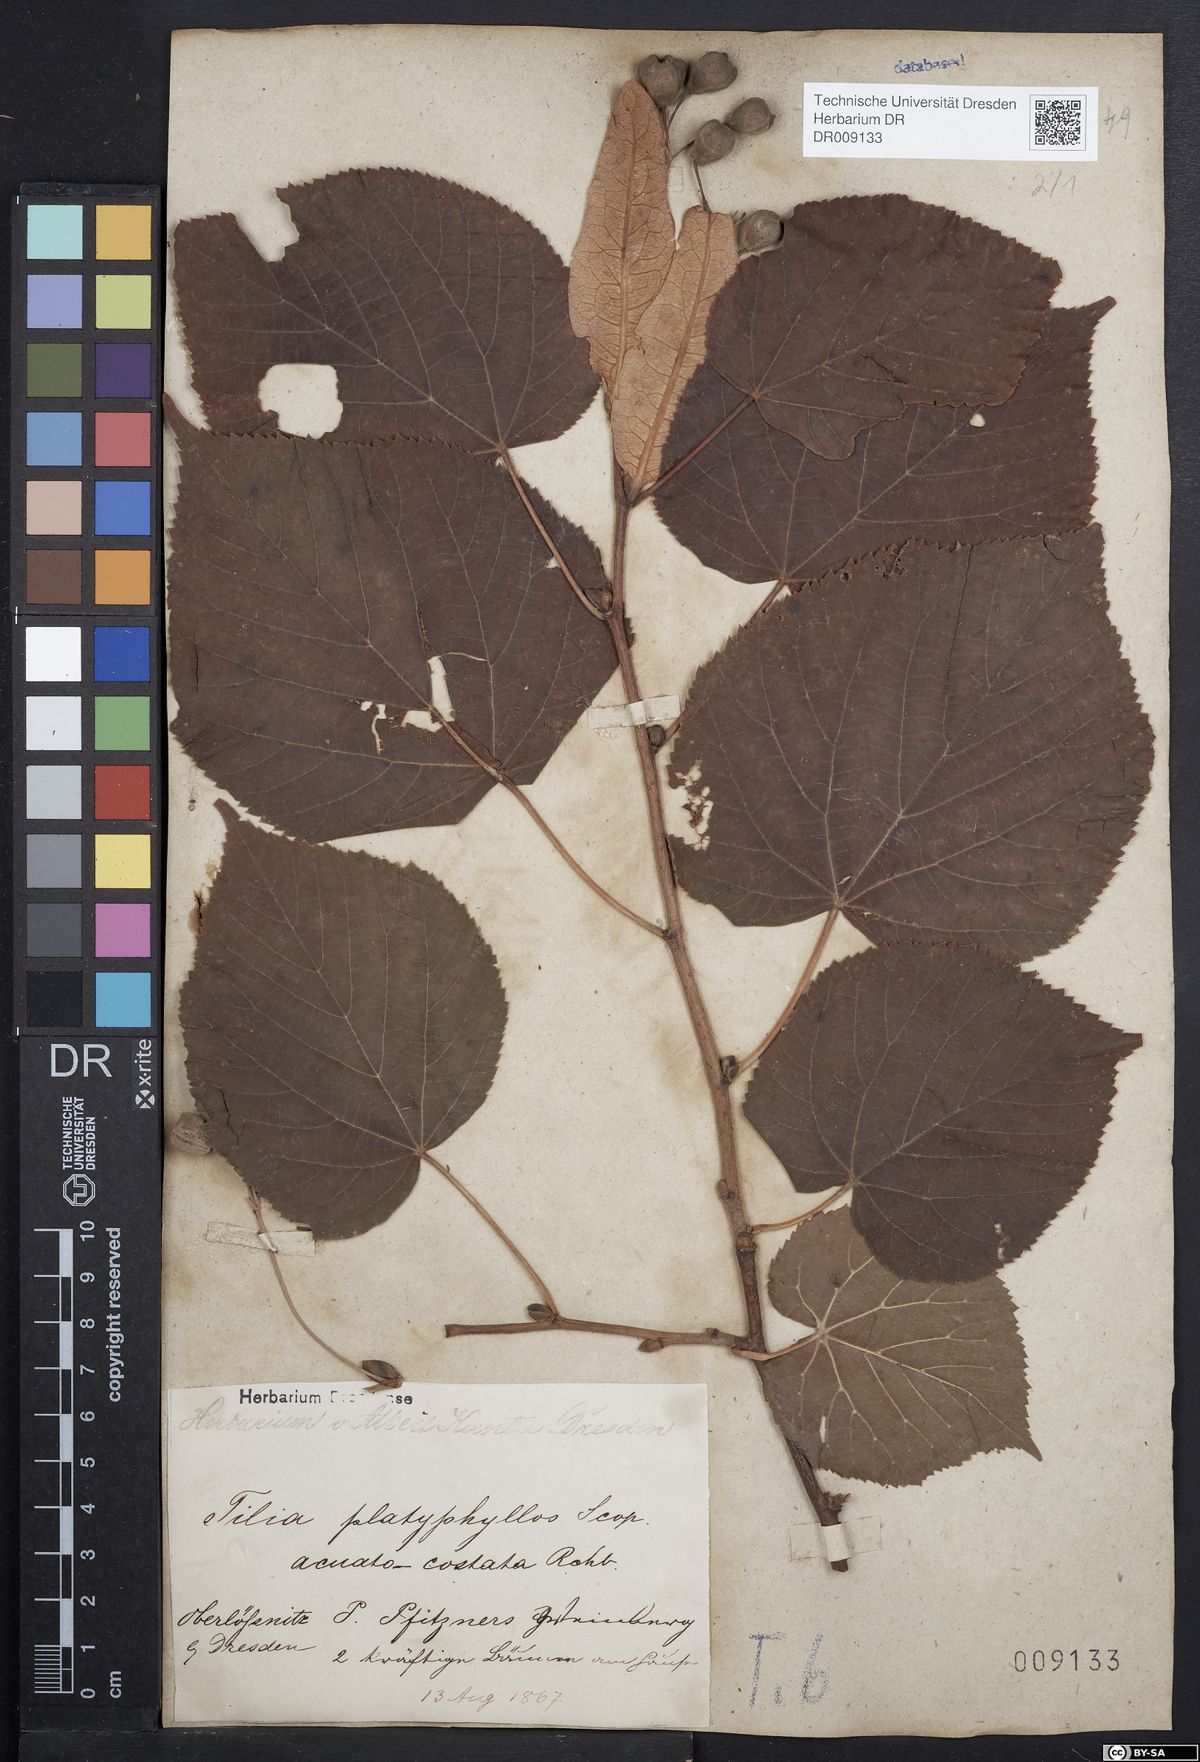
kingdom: Plantae
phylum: Tracheophyta
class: Magnoliopsida
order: Malvales
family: Malvaceae
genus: Tilia
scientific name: Tilia platyphyllos
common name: Large-leaved lime
